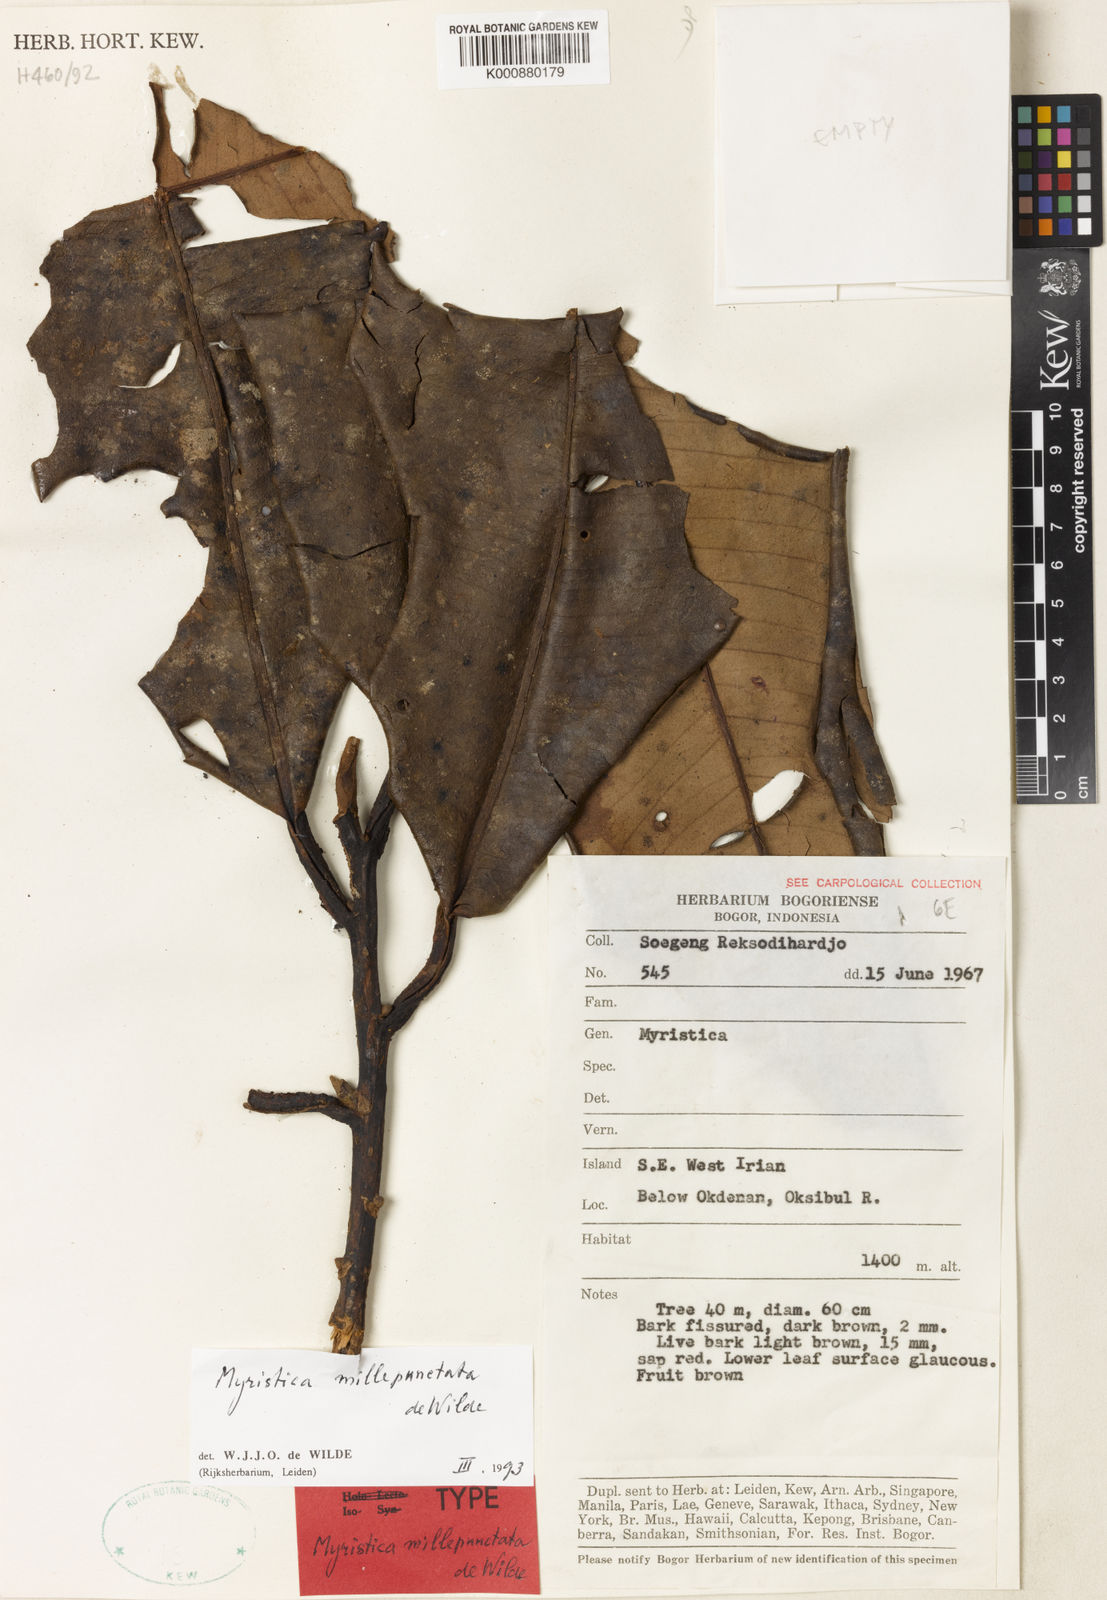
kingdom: Plantae
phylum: Tracheophyta
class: Magnoliopsida
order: Magnoliales
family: Myristicaceae
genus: Myristica
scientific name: Myristica millepunctata
